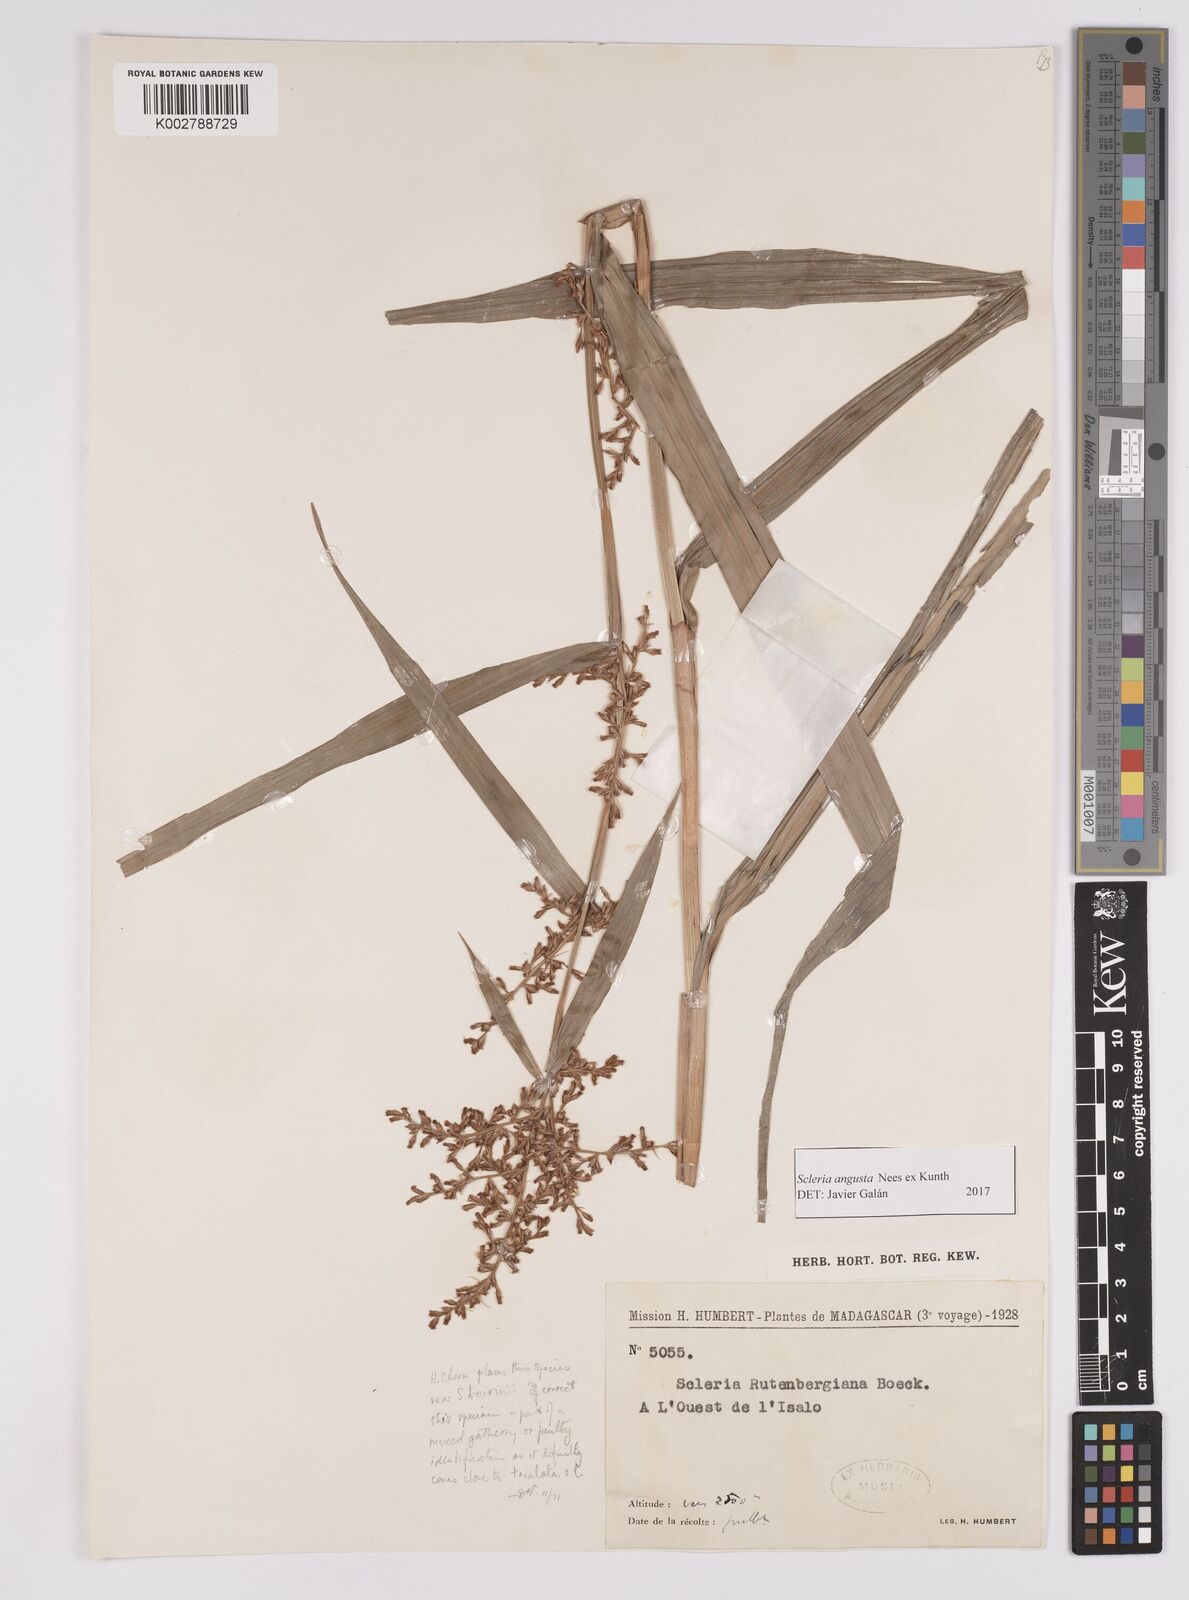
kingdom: Plantae
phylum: Tracheophyta
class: Liliopsida
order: Poales
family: Cyperaceae
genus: Scleria
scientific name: Scleria angusta
